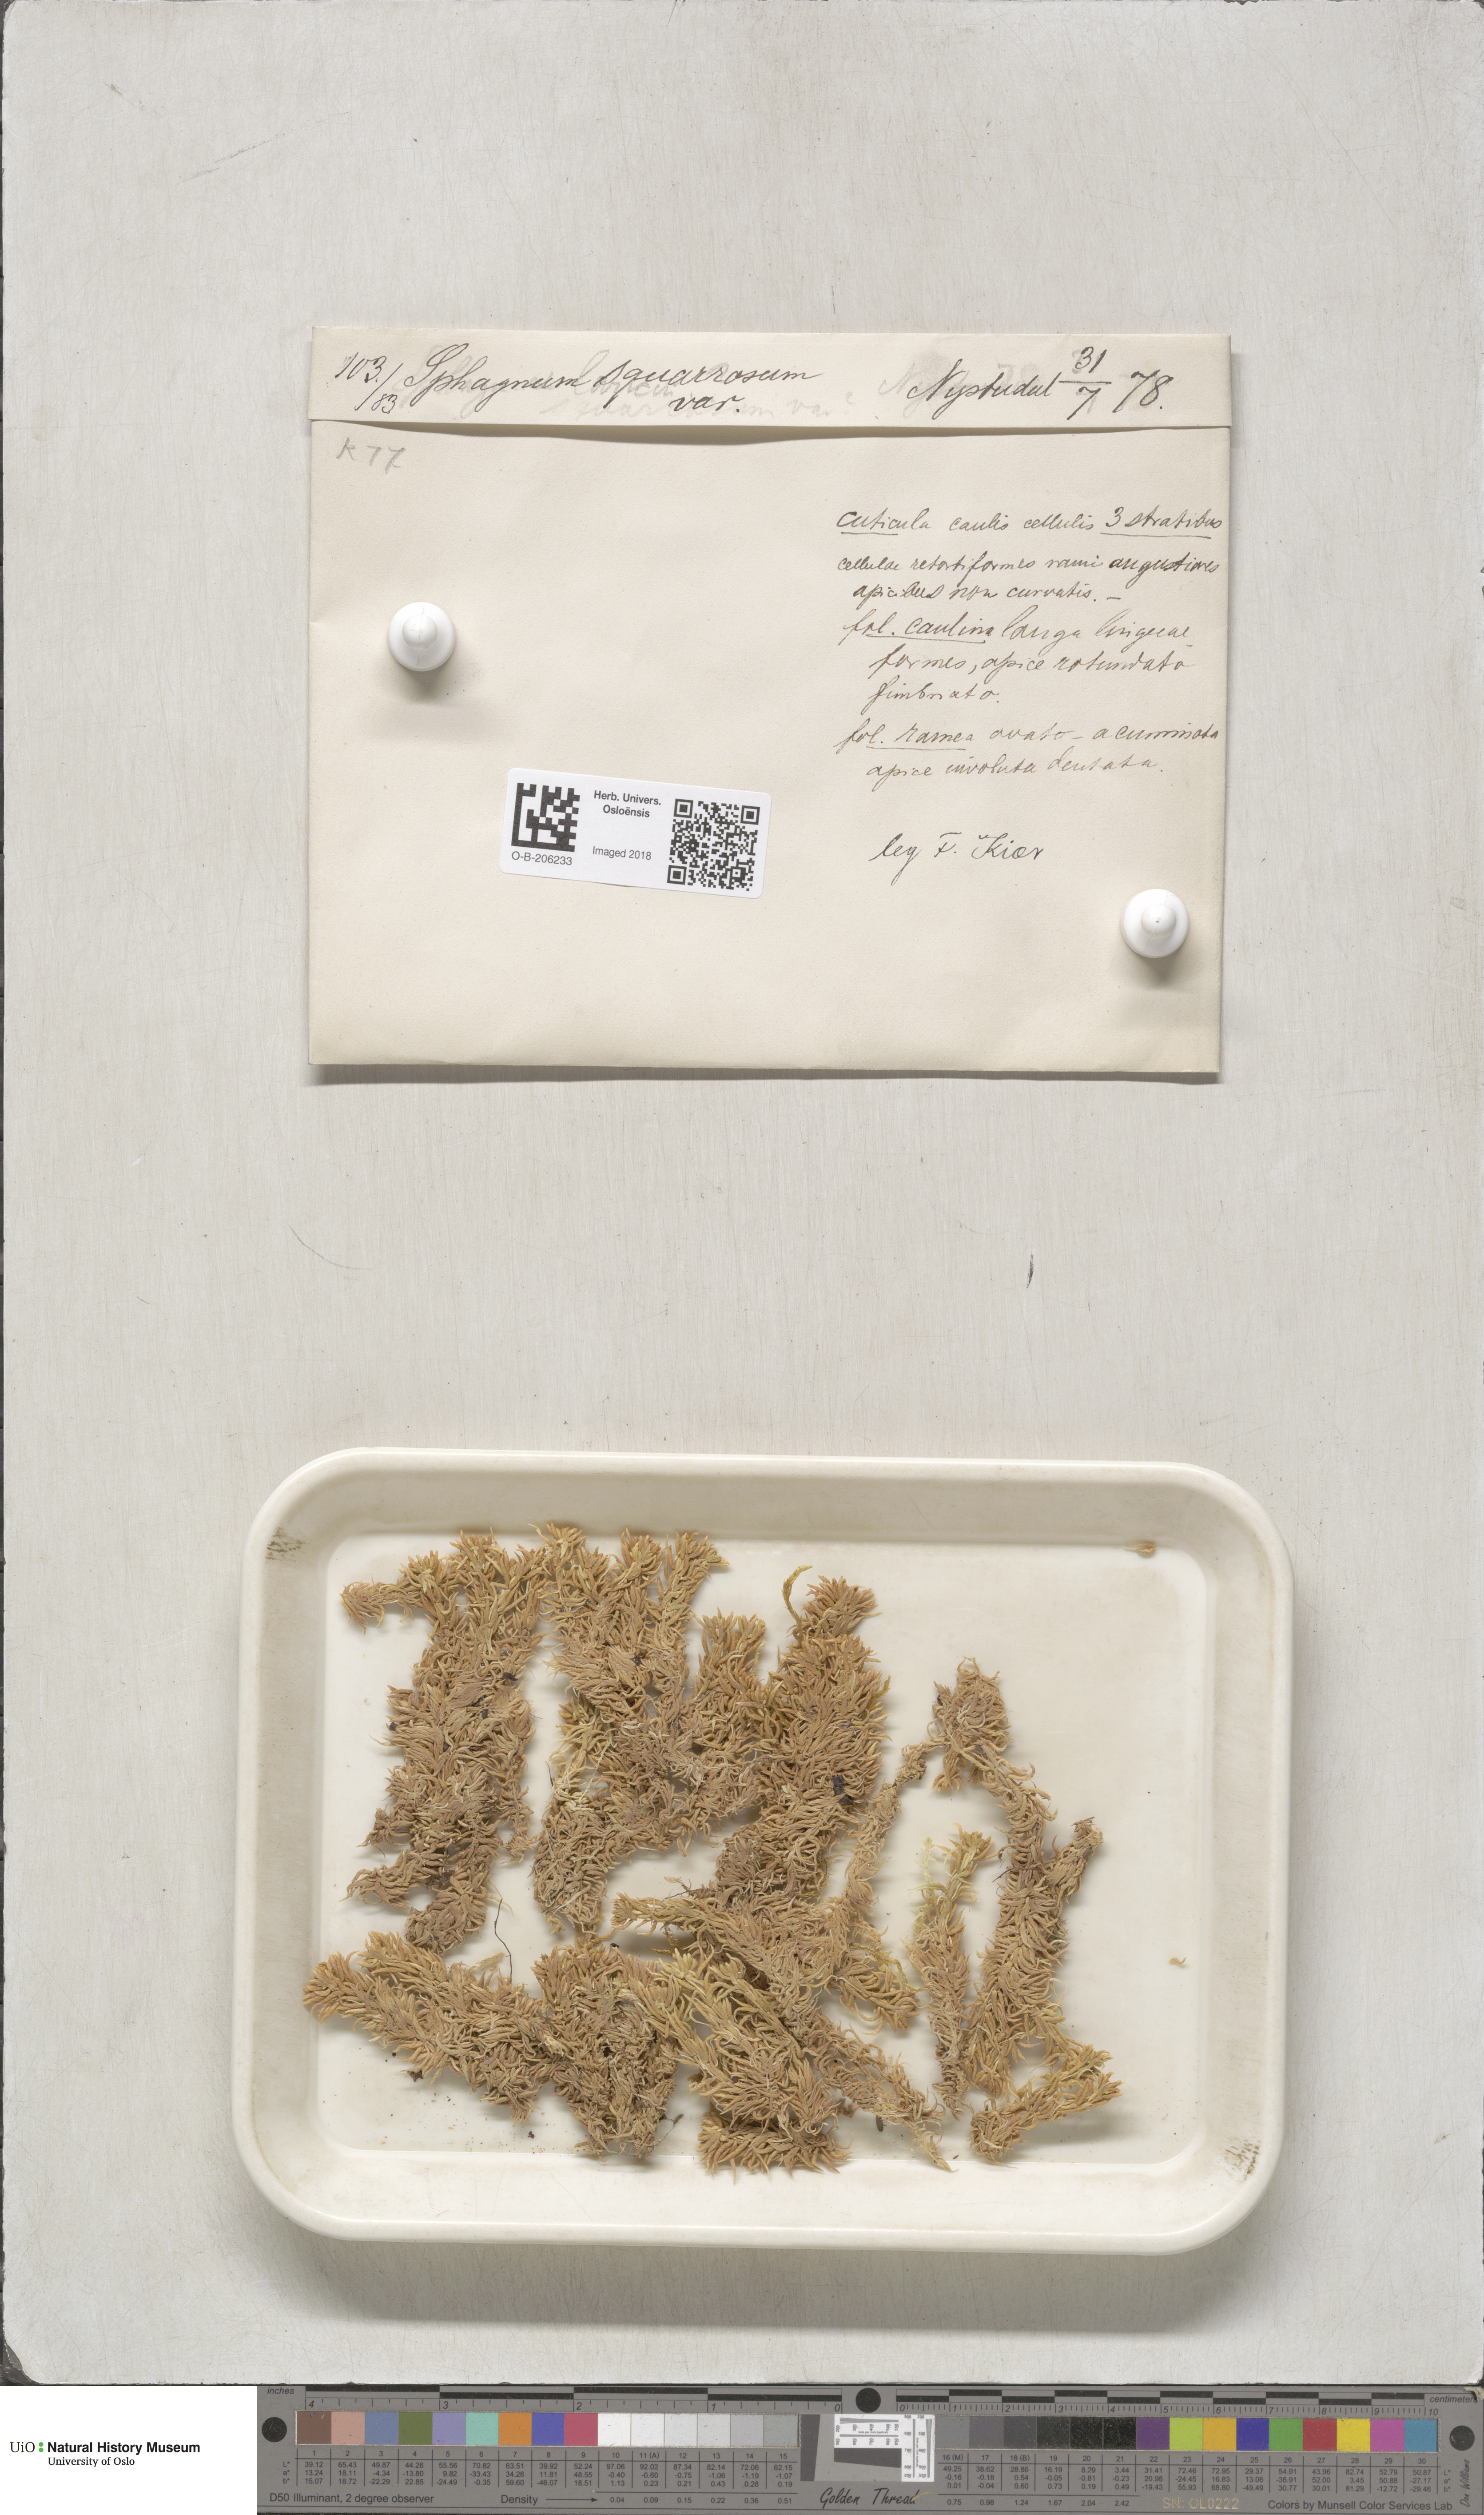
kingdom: Plantae
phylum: Bryophyta
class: Sphagnopsida
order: Sphagnales
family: Sphagnaceae
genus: Sphagnum
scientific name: Sphagnum squarrosum
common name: Shaggy peat moss
